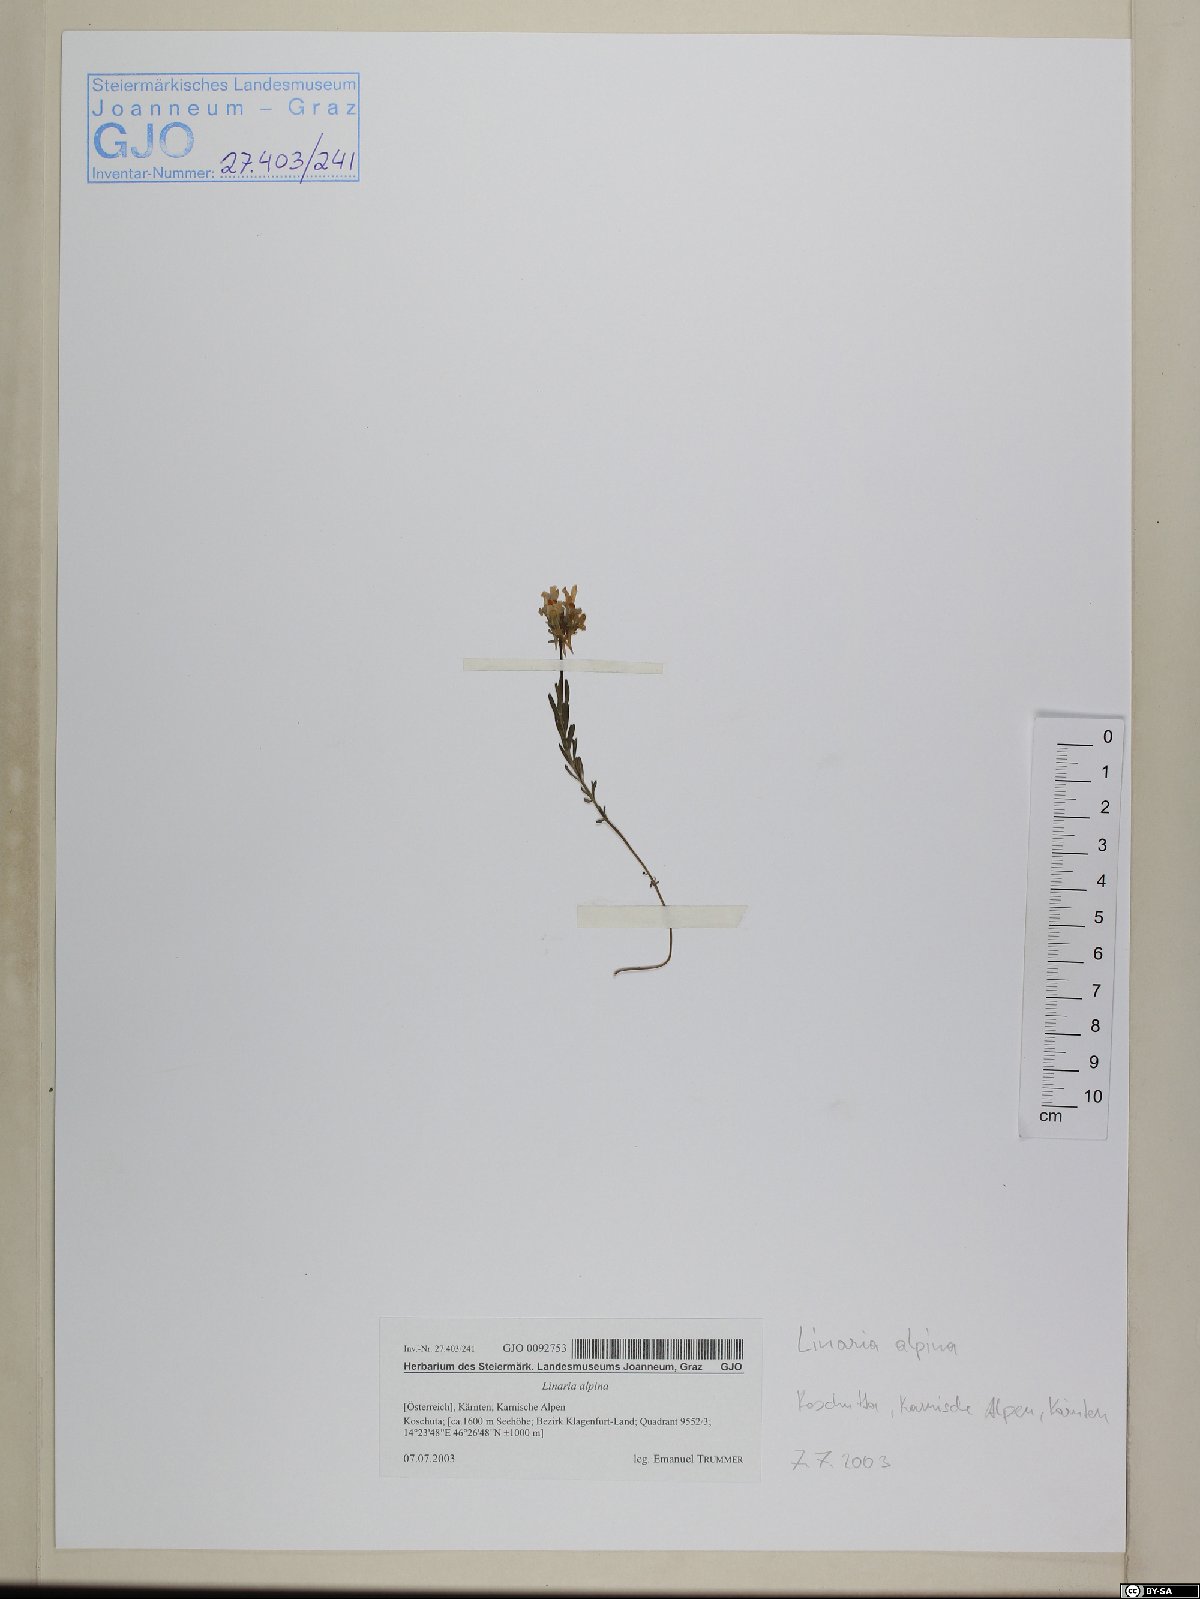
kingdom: Plantae
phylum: Tracheophyta
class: Magnoliopsida
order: Lamiales
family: Plantaginaceae
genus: Linaria
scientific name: Linaria alpina
